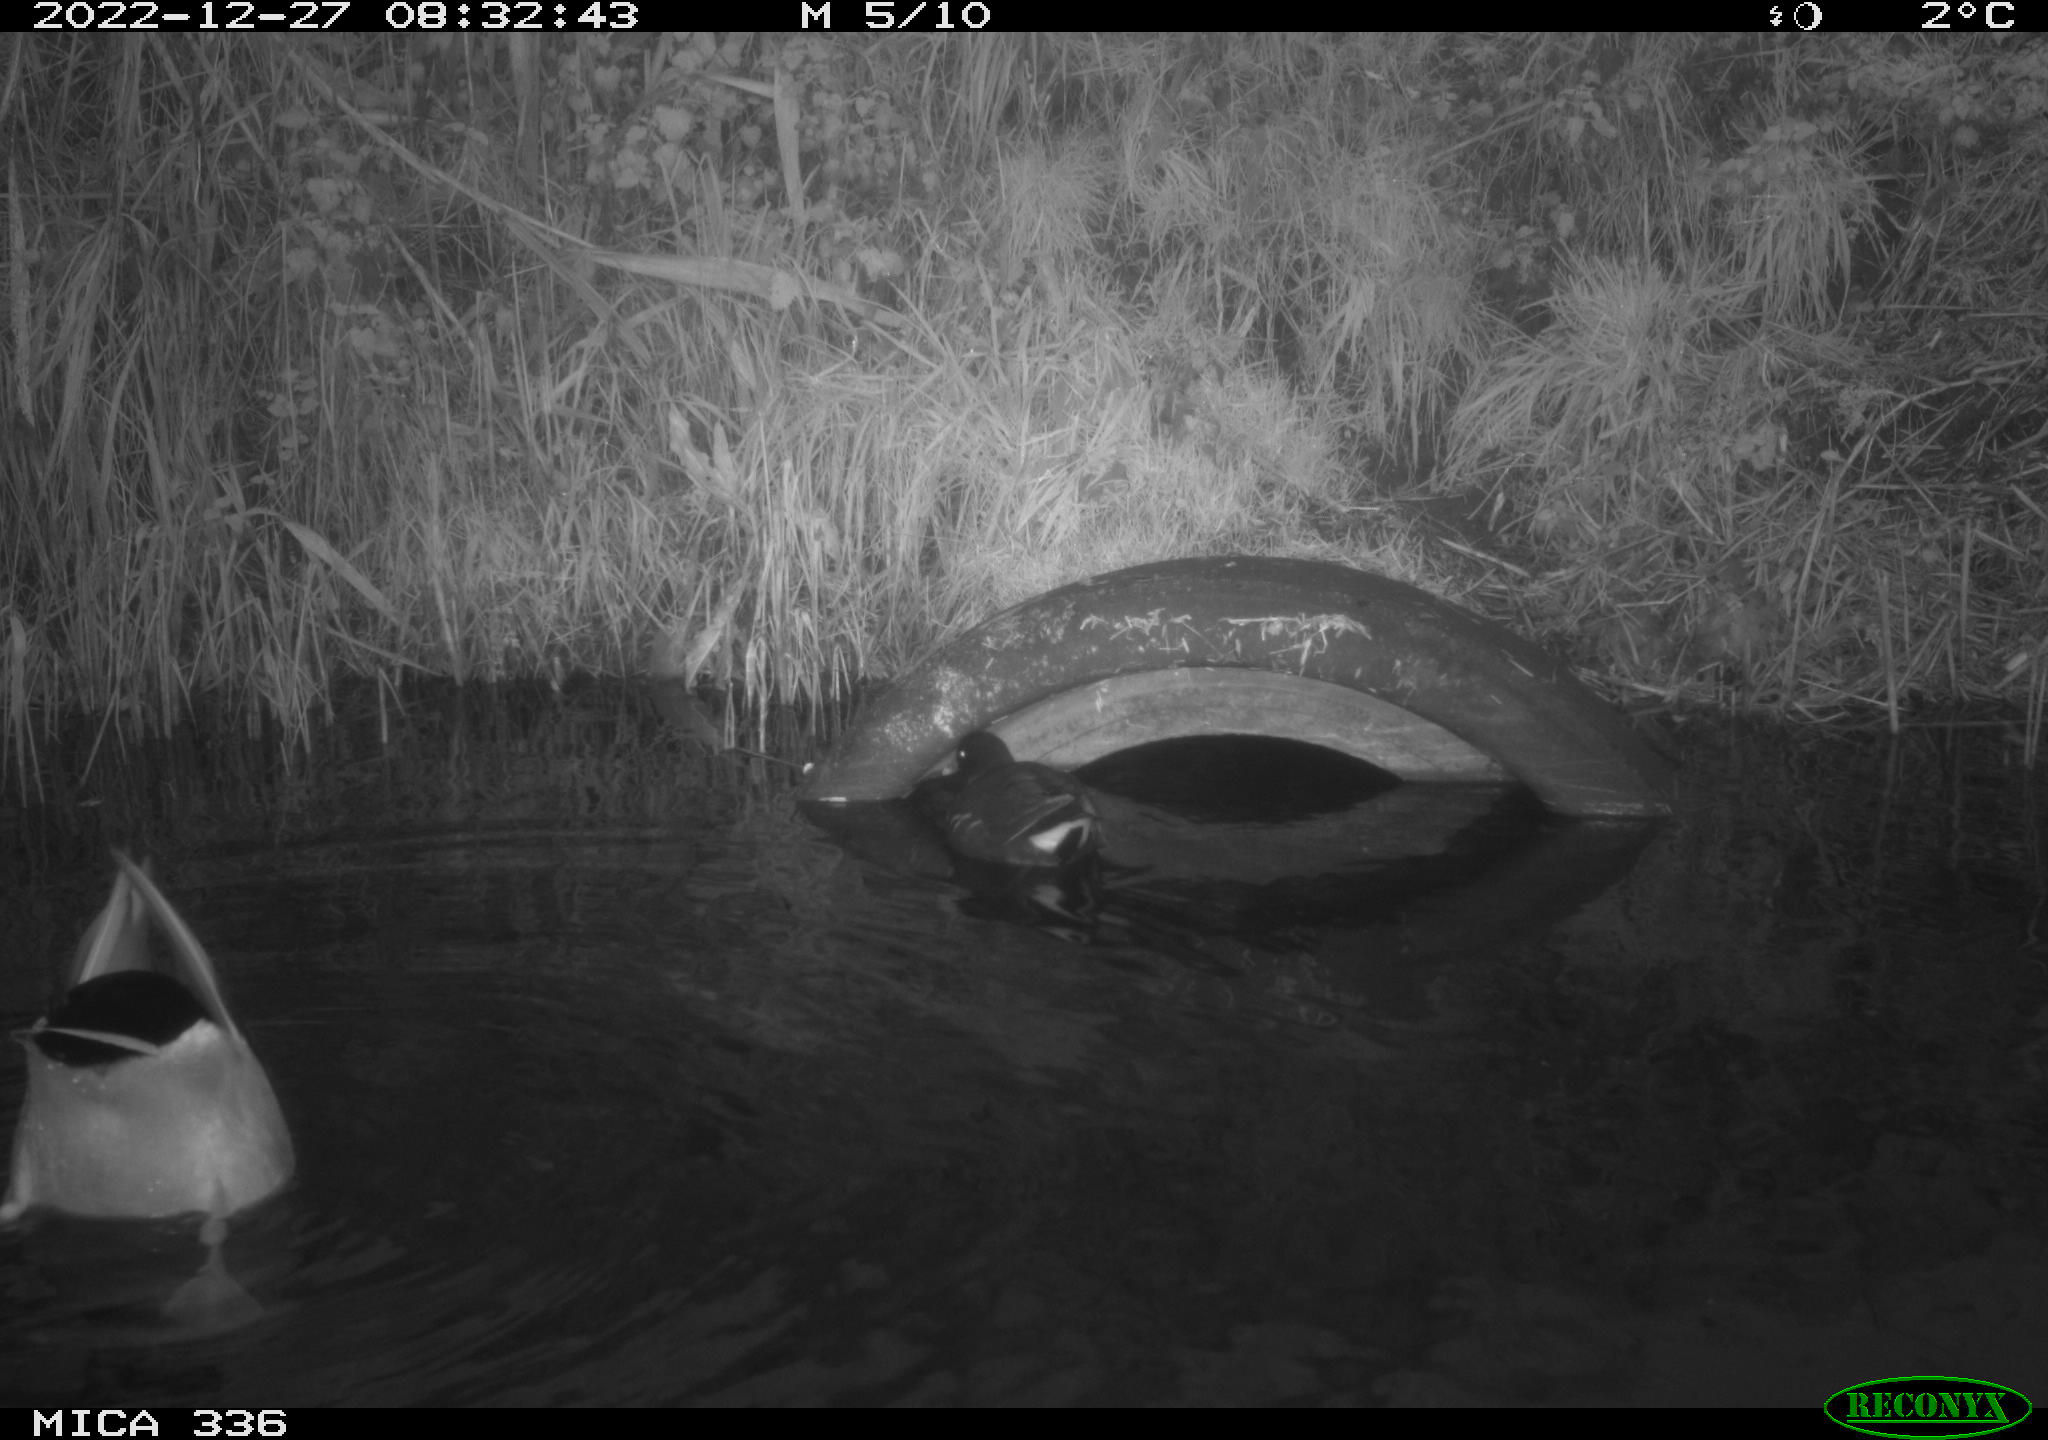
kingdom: Animalia
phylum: Chordata
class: Aves
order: Gruiformes
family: Rallidae
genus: Gallinula
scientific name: Gallinula chloropus
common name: Common moorhen
